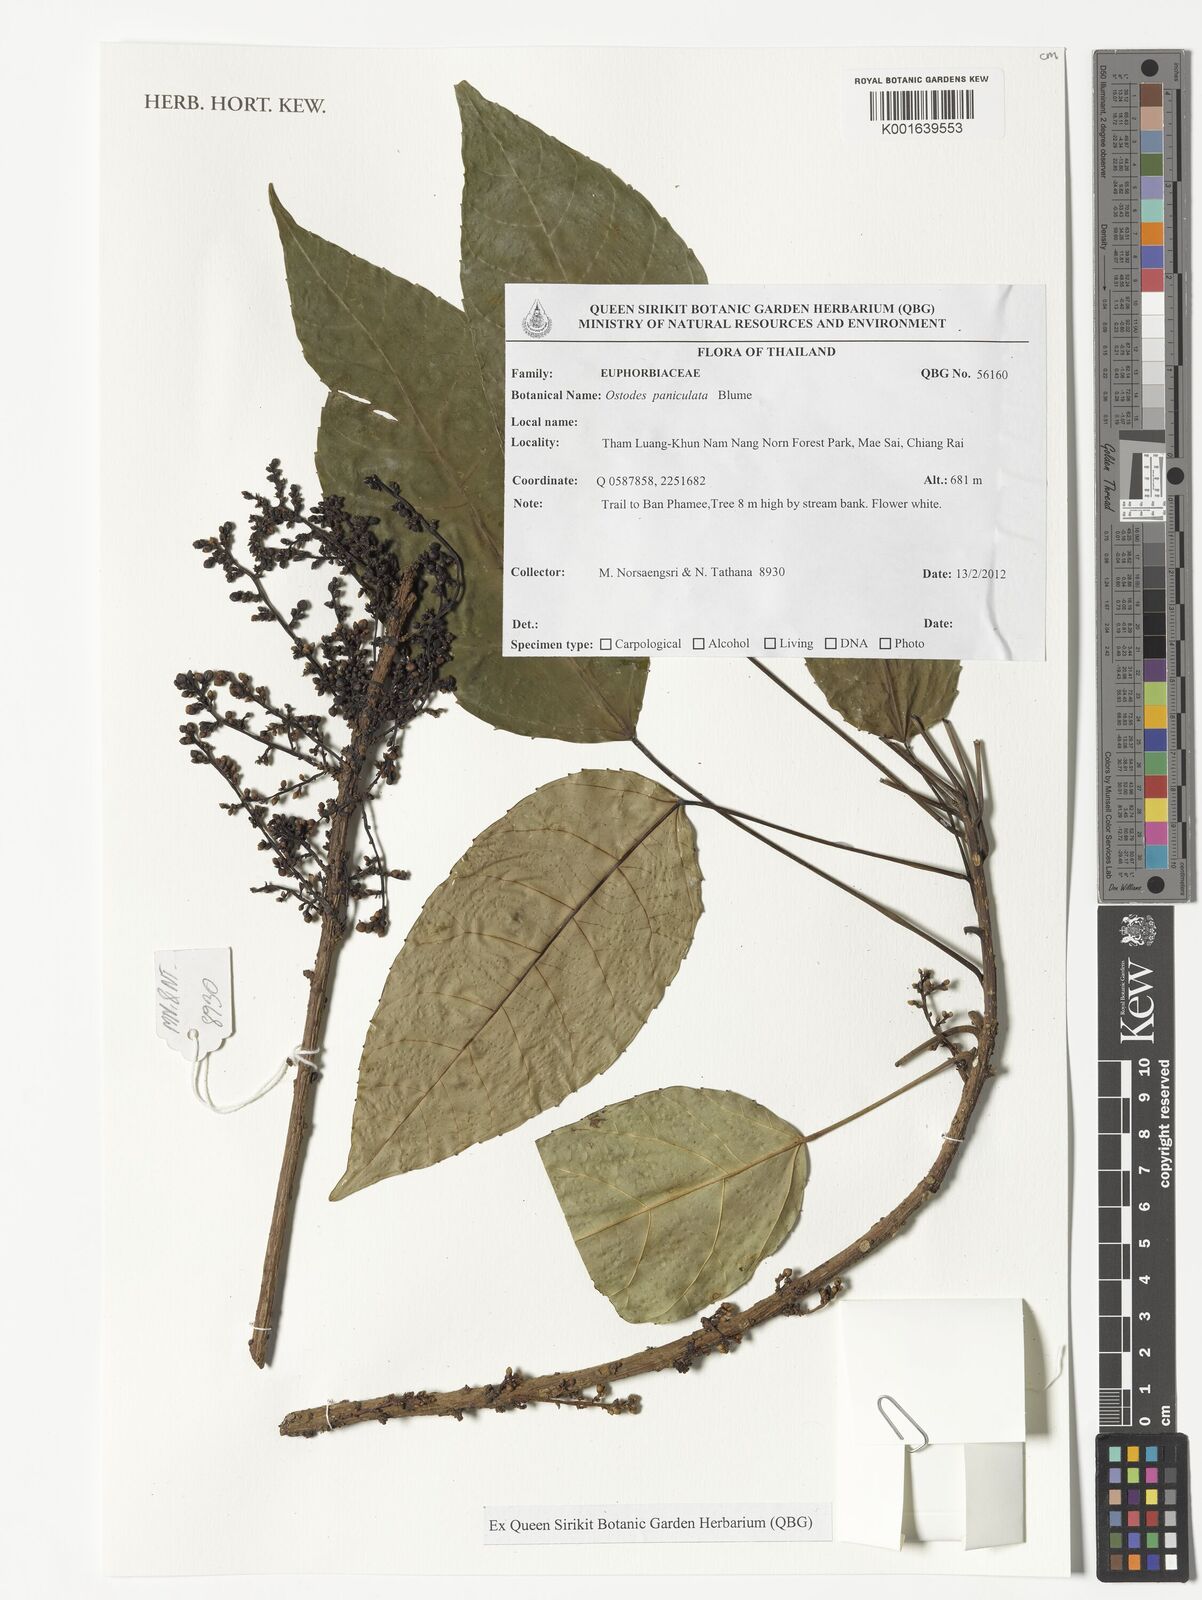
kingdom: Plantae
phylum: Tracheophyta
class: Magnoliopsida
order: Malpighiales
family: Euphorbiaceae
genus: Ostodes
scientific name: Ostodes paniculata
